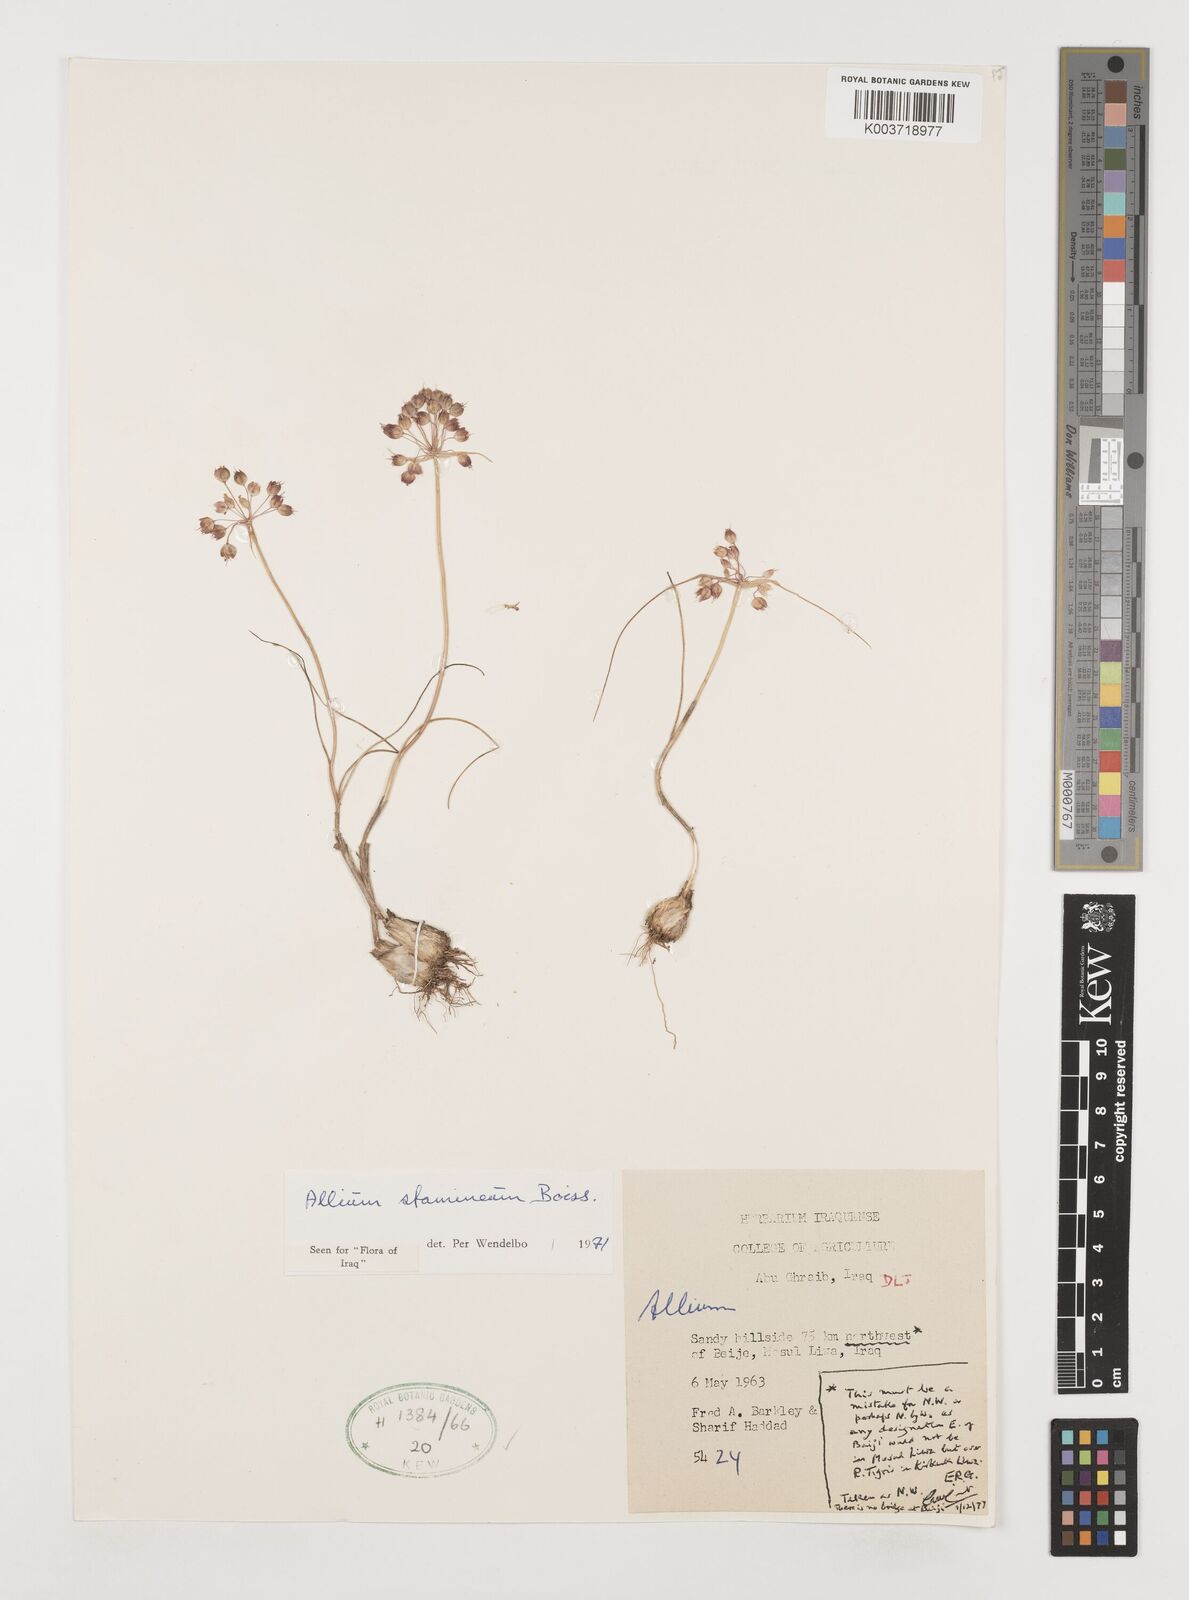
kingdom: Plantae
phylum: Tracheophyta
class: Liliopsida
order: Asparagales
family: Amaryllidaceae
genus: Allium
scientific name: Allium stamineum
